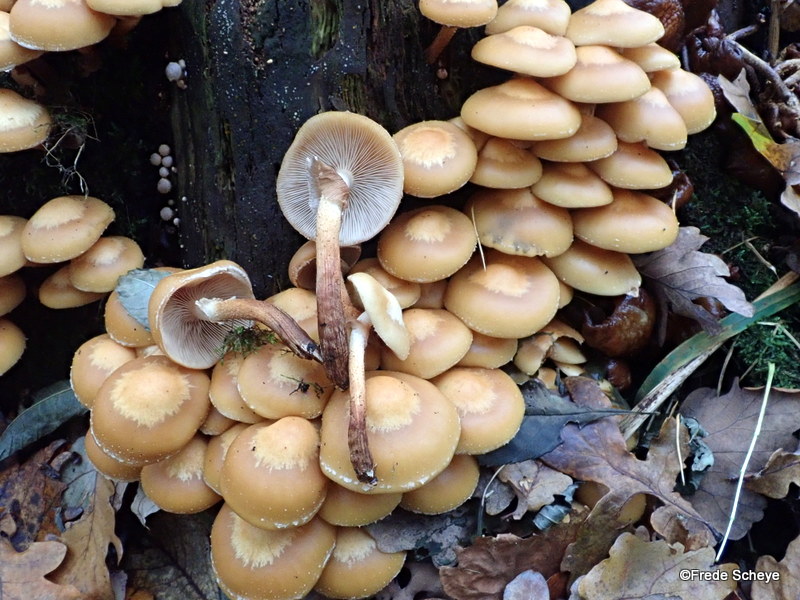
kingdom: Fungi
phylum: Basidiomycota
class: Agaricomycetes
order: Agaricales
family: Strophariaceae
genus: Kuehneromyces
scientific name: Kuehneromyces mutabilis
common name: foranderlig skælhat
